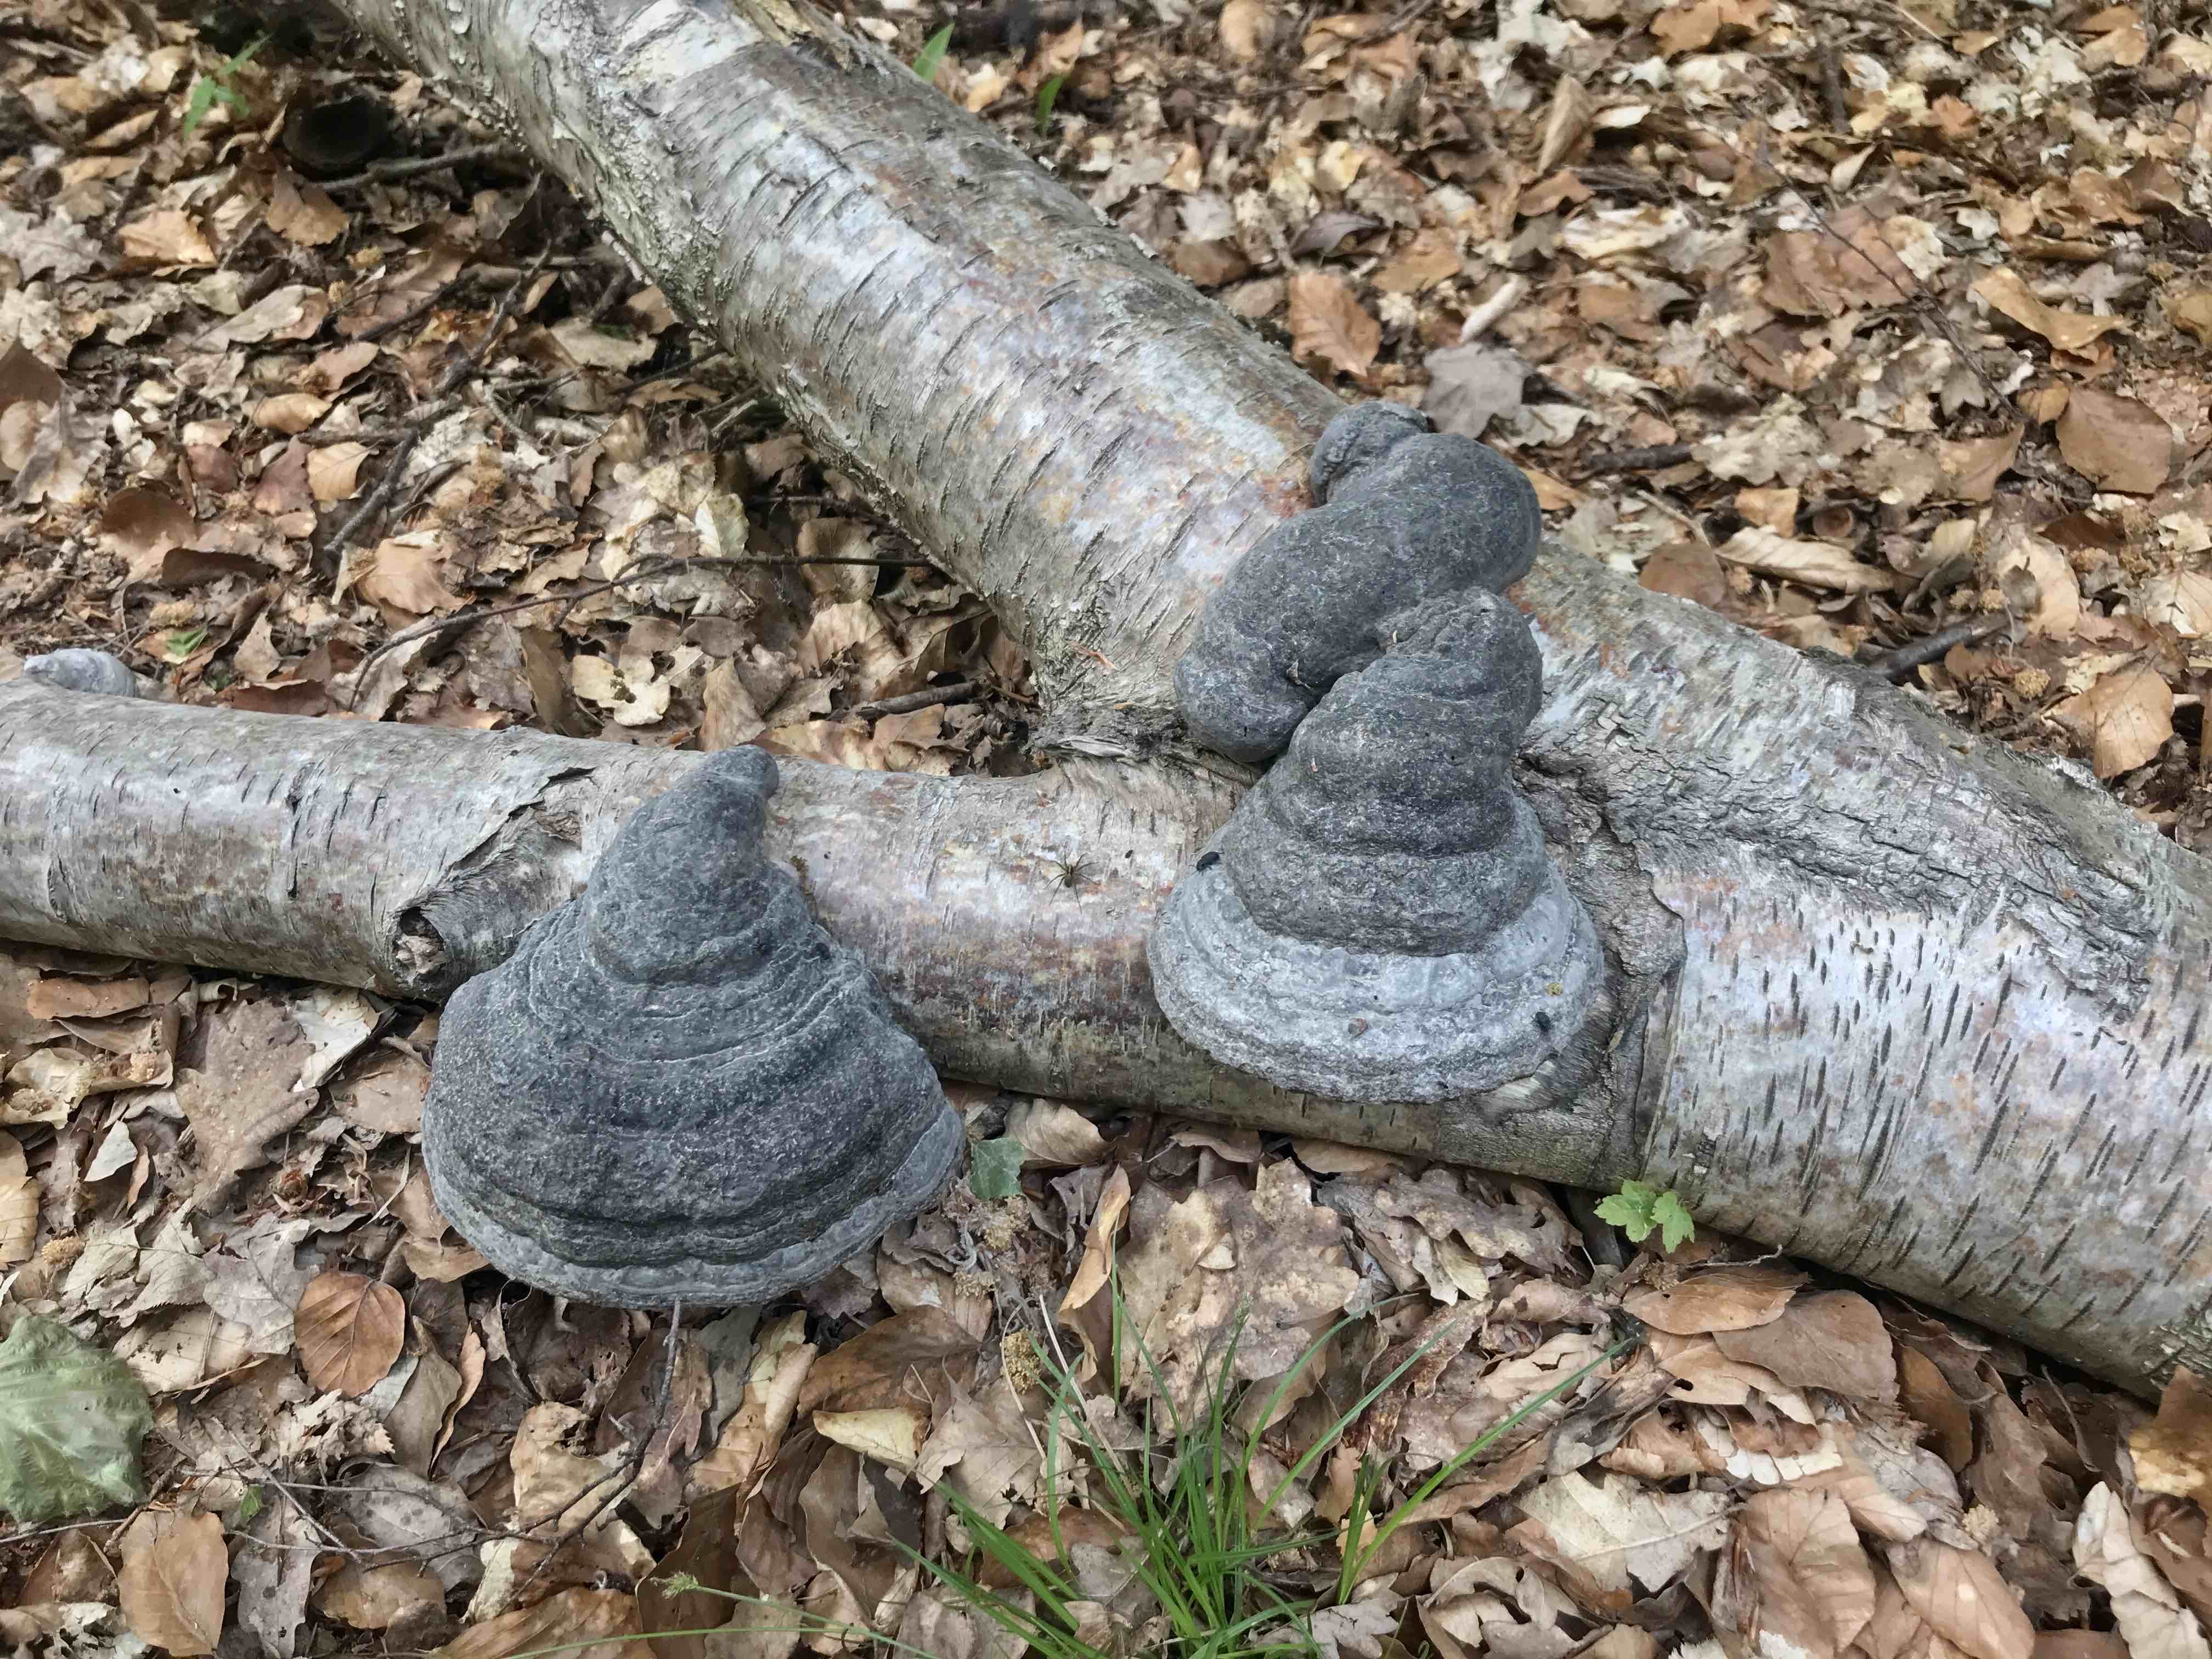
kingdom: Fungi
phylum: Basidiomycota
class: Agaricomycetes
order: Polyporales
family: Polyporaceae
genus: Fomes
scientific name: Fomes fomentarius
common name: tøndersvamp
